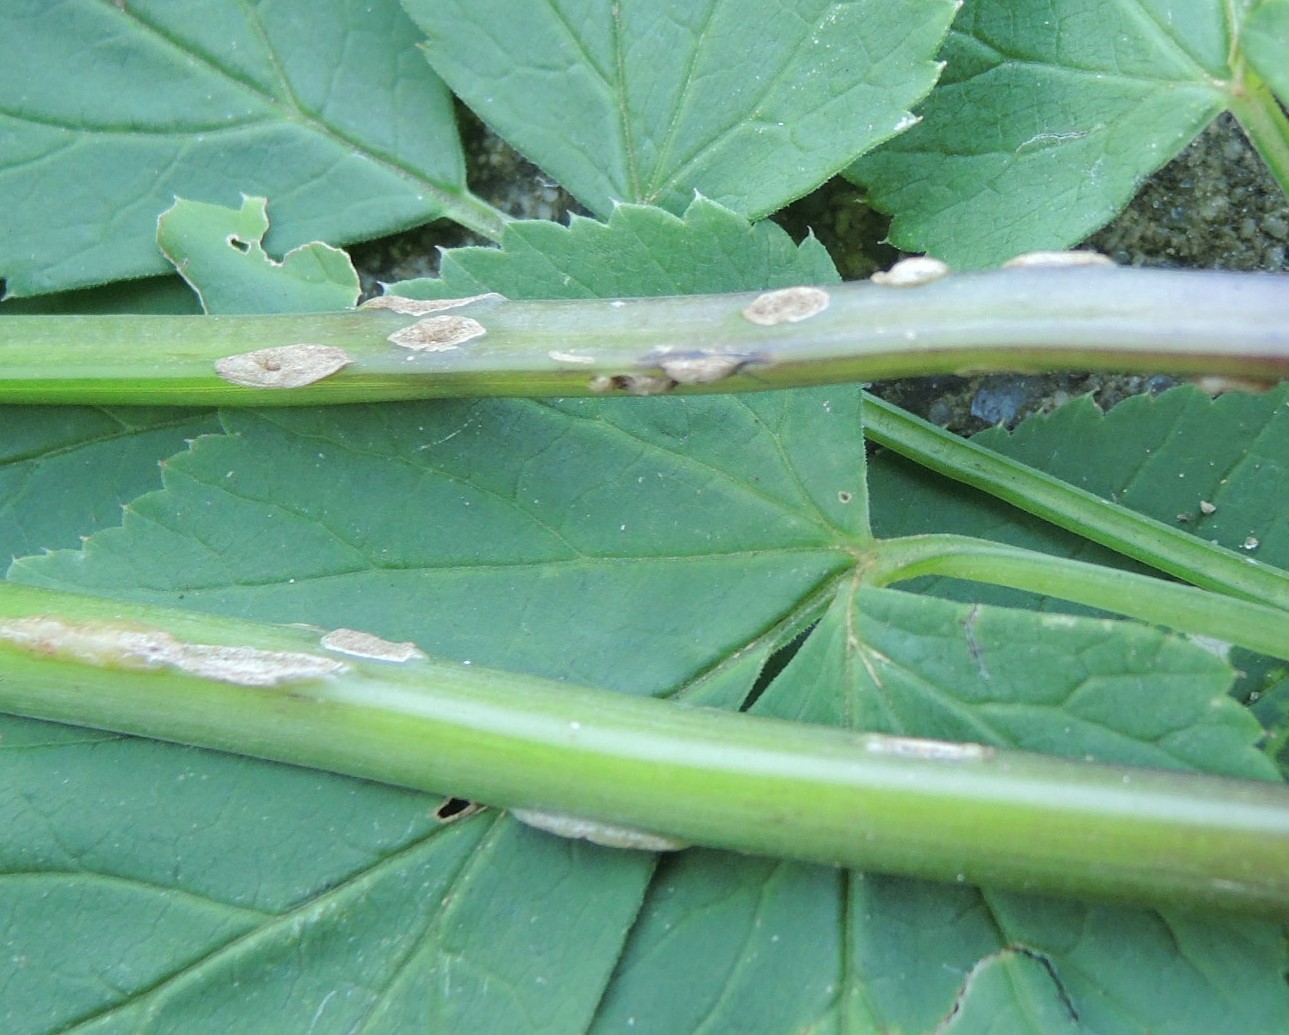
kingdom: Fungi
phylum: Ascomycota
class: Taphrinomycetes
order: Taphrinales
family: Taphrinaceae
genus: Protomyces
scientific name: Protomyces macrosporus
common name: skvalderkål-vablesæk
